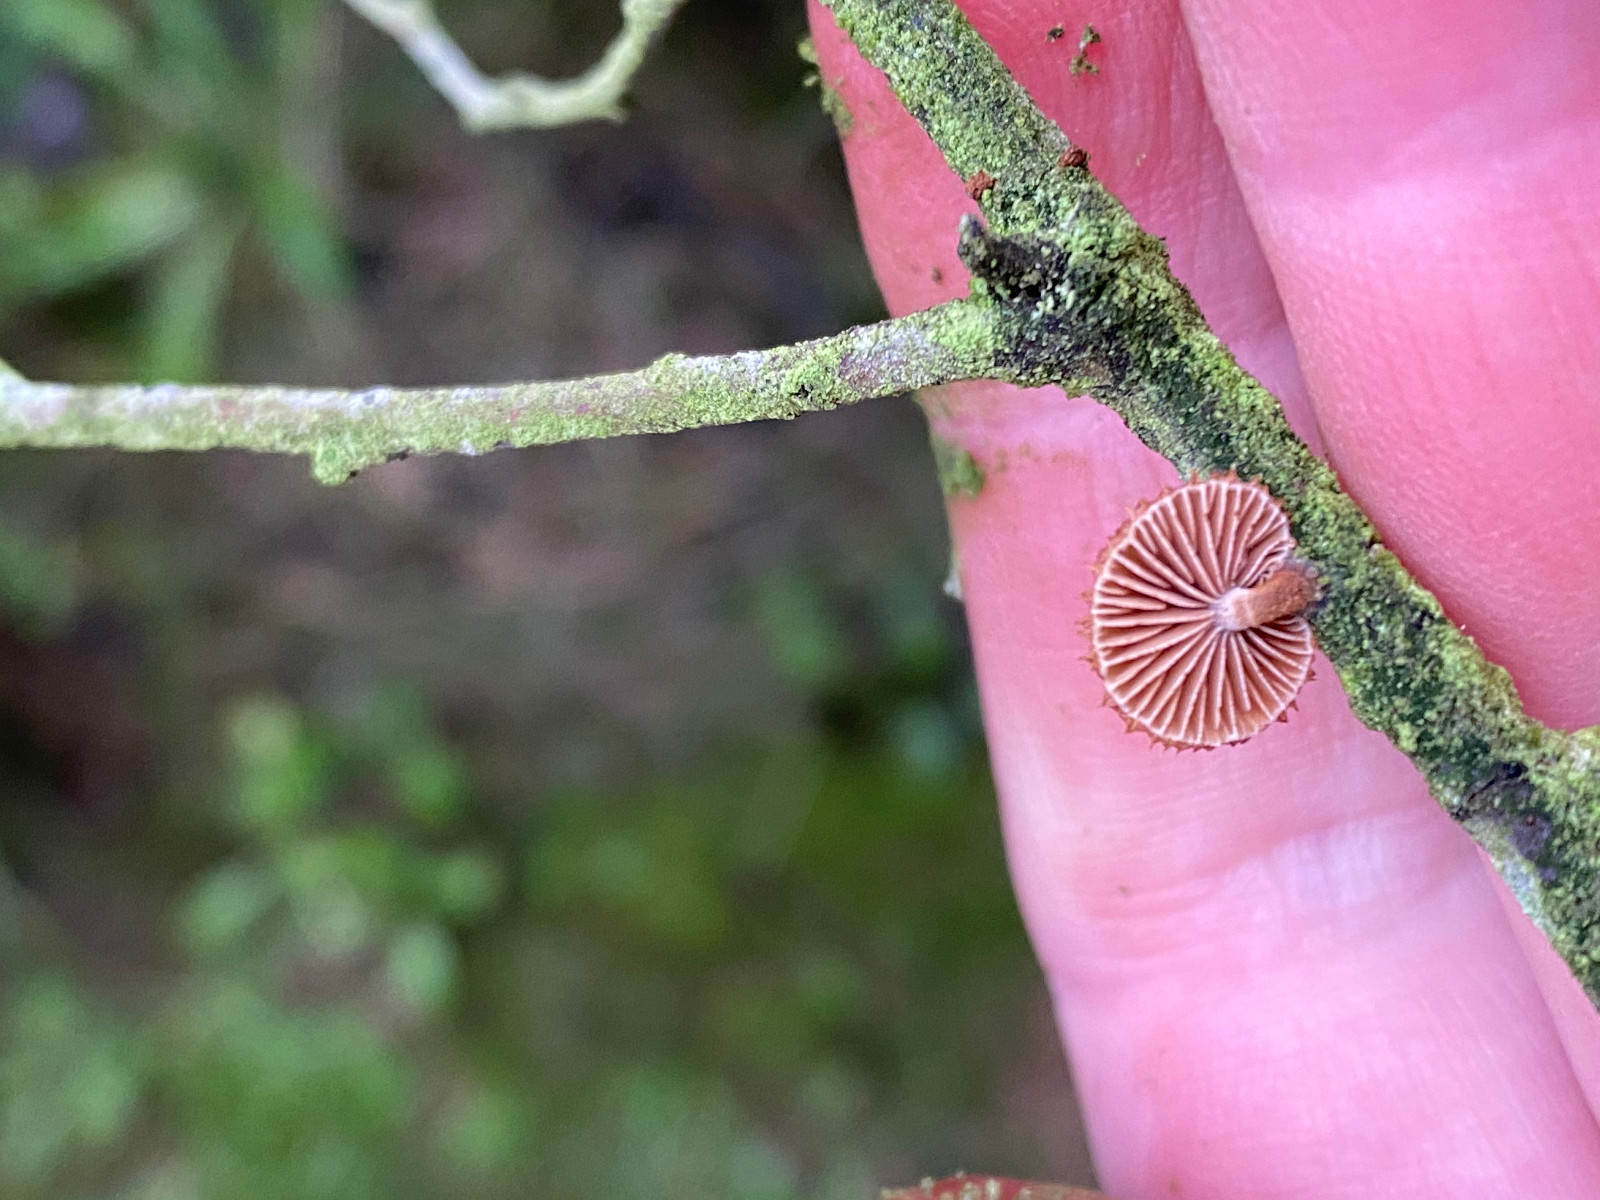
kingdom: Fungi
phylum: Basidiomycota
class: Agaricomycetes
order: Agaricales
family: Tubariaceae
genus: Phaeomarasmius
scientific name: Phaeomarasmius erinaceus
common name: spidsskælhat
